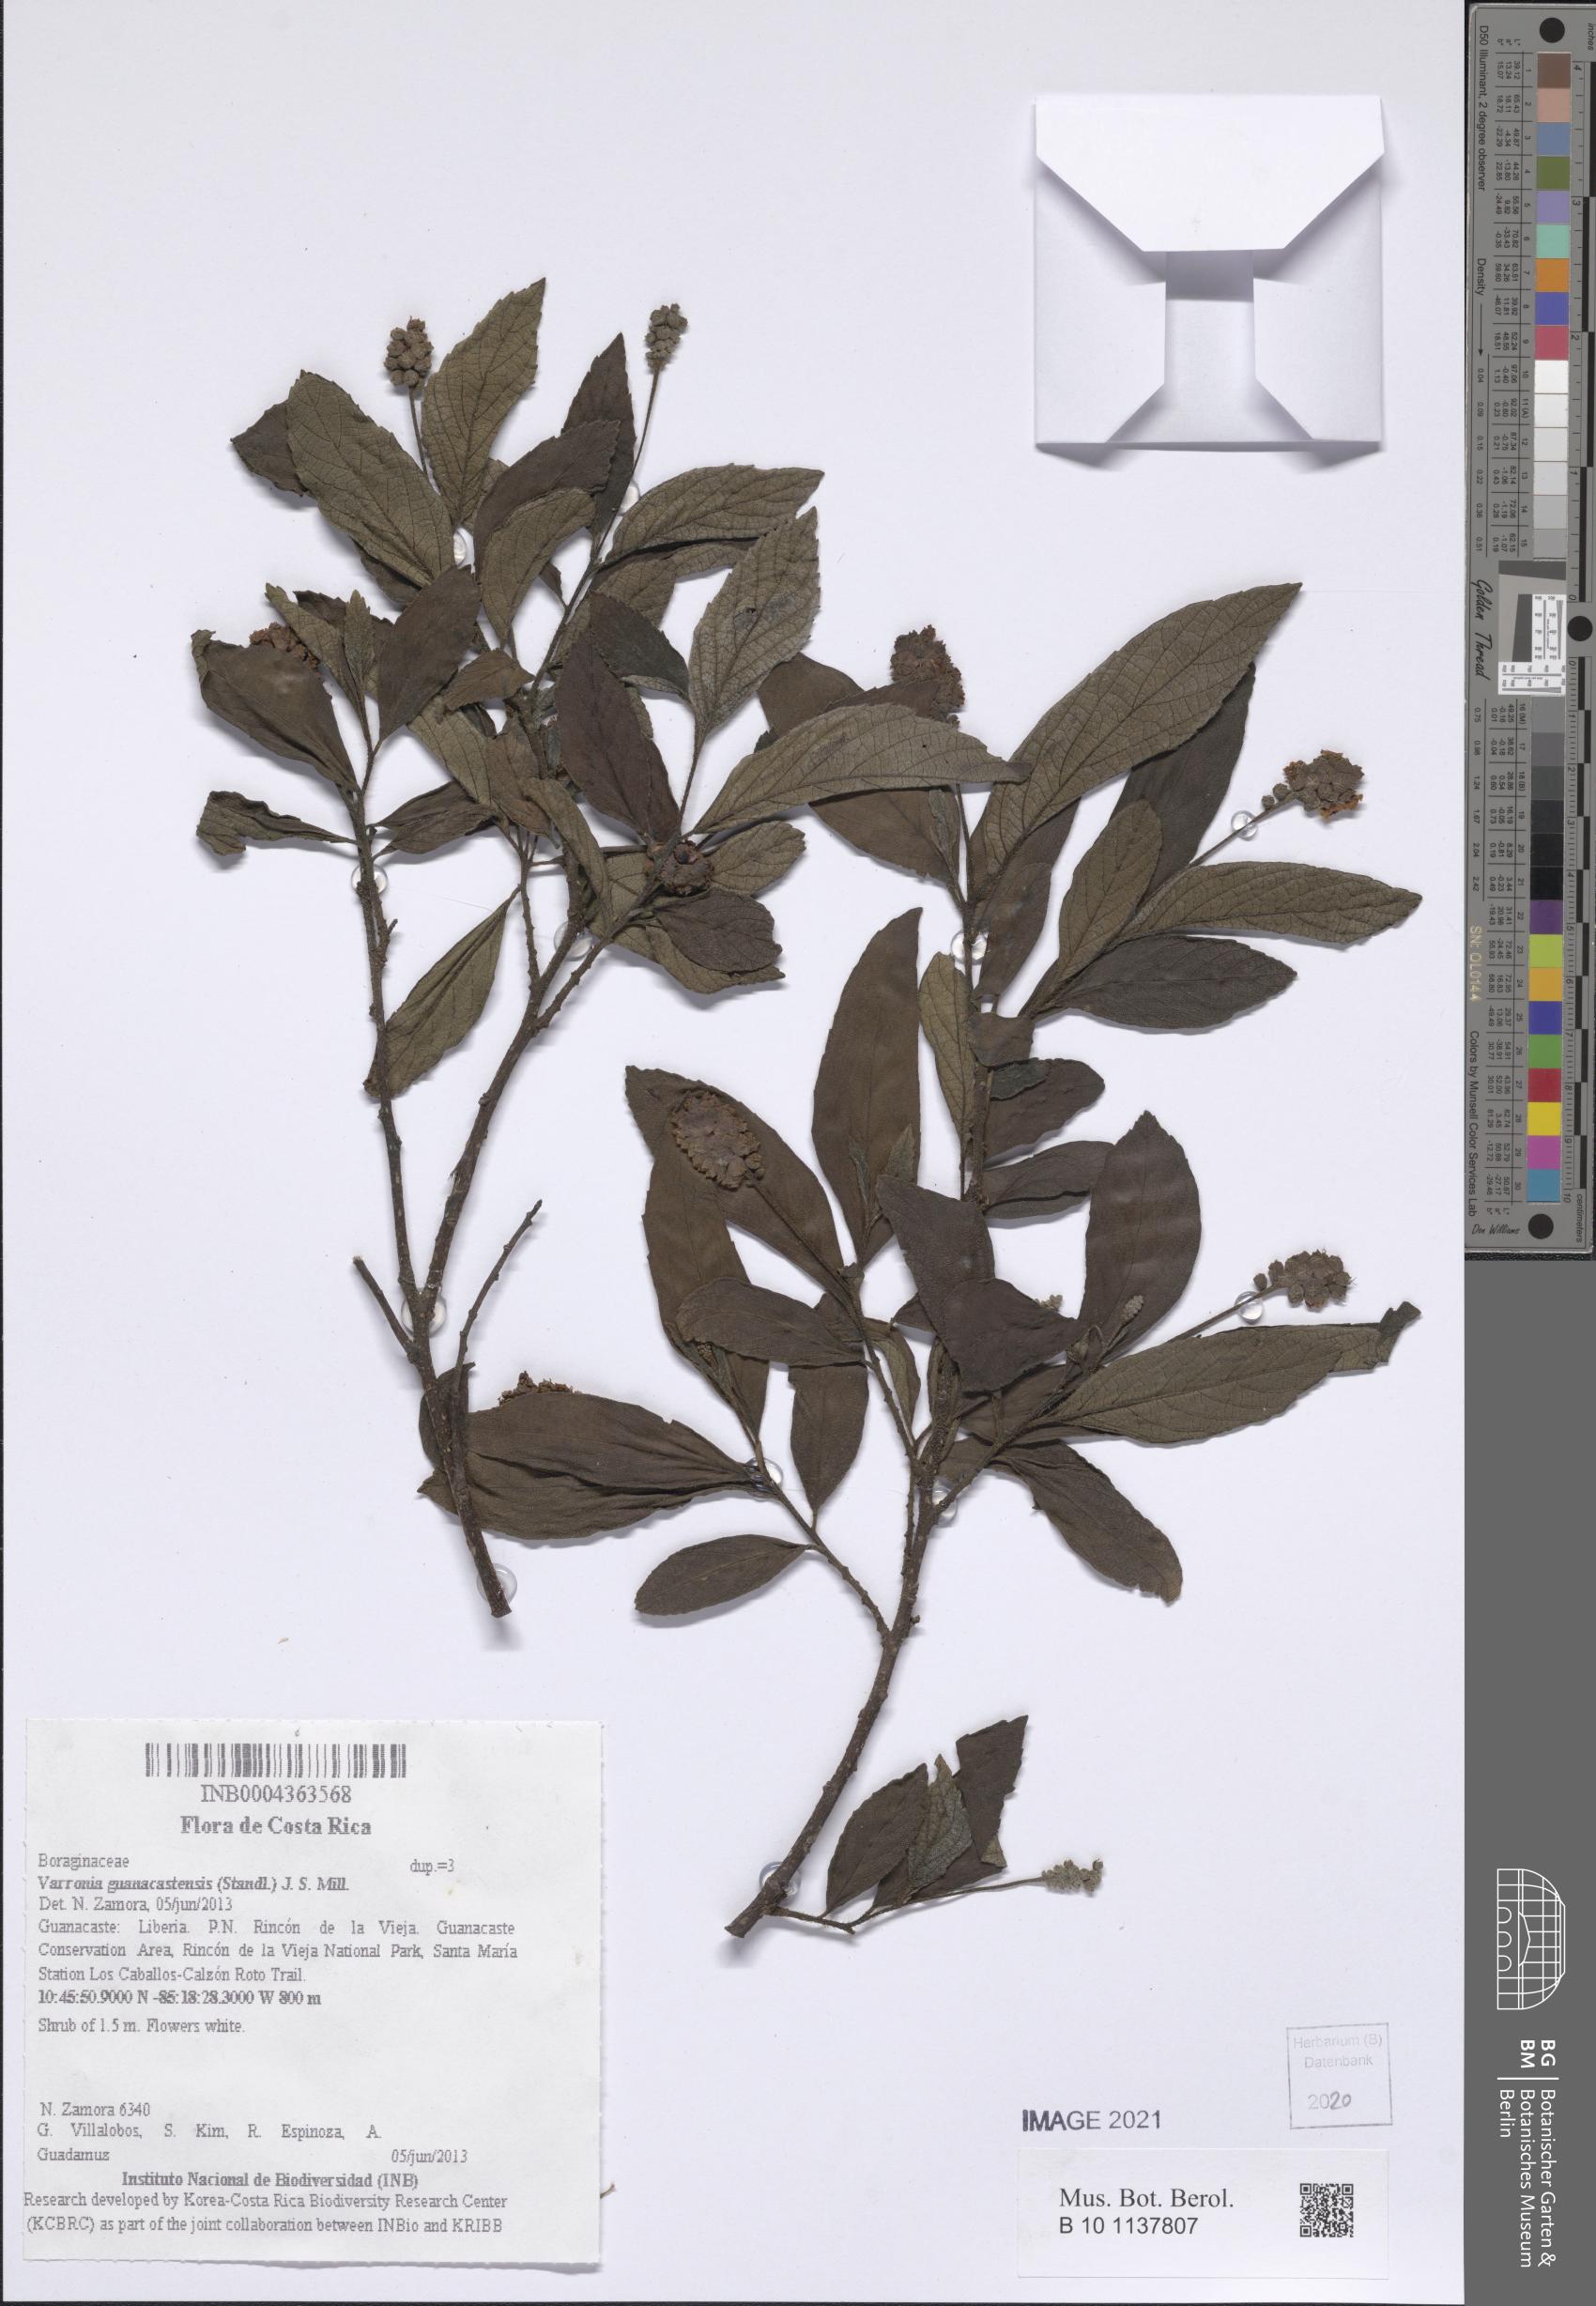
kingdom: Plantae
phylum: Tracheophyta
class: Magnoliopsida
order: Boraginales
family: Cordiaceae
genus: Varronia
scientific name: Varronia guanacastensis
